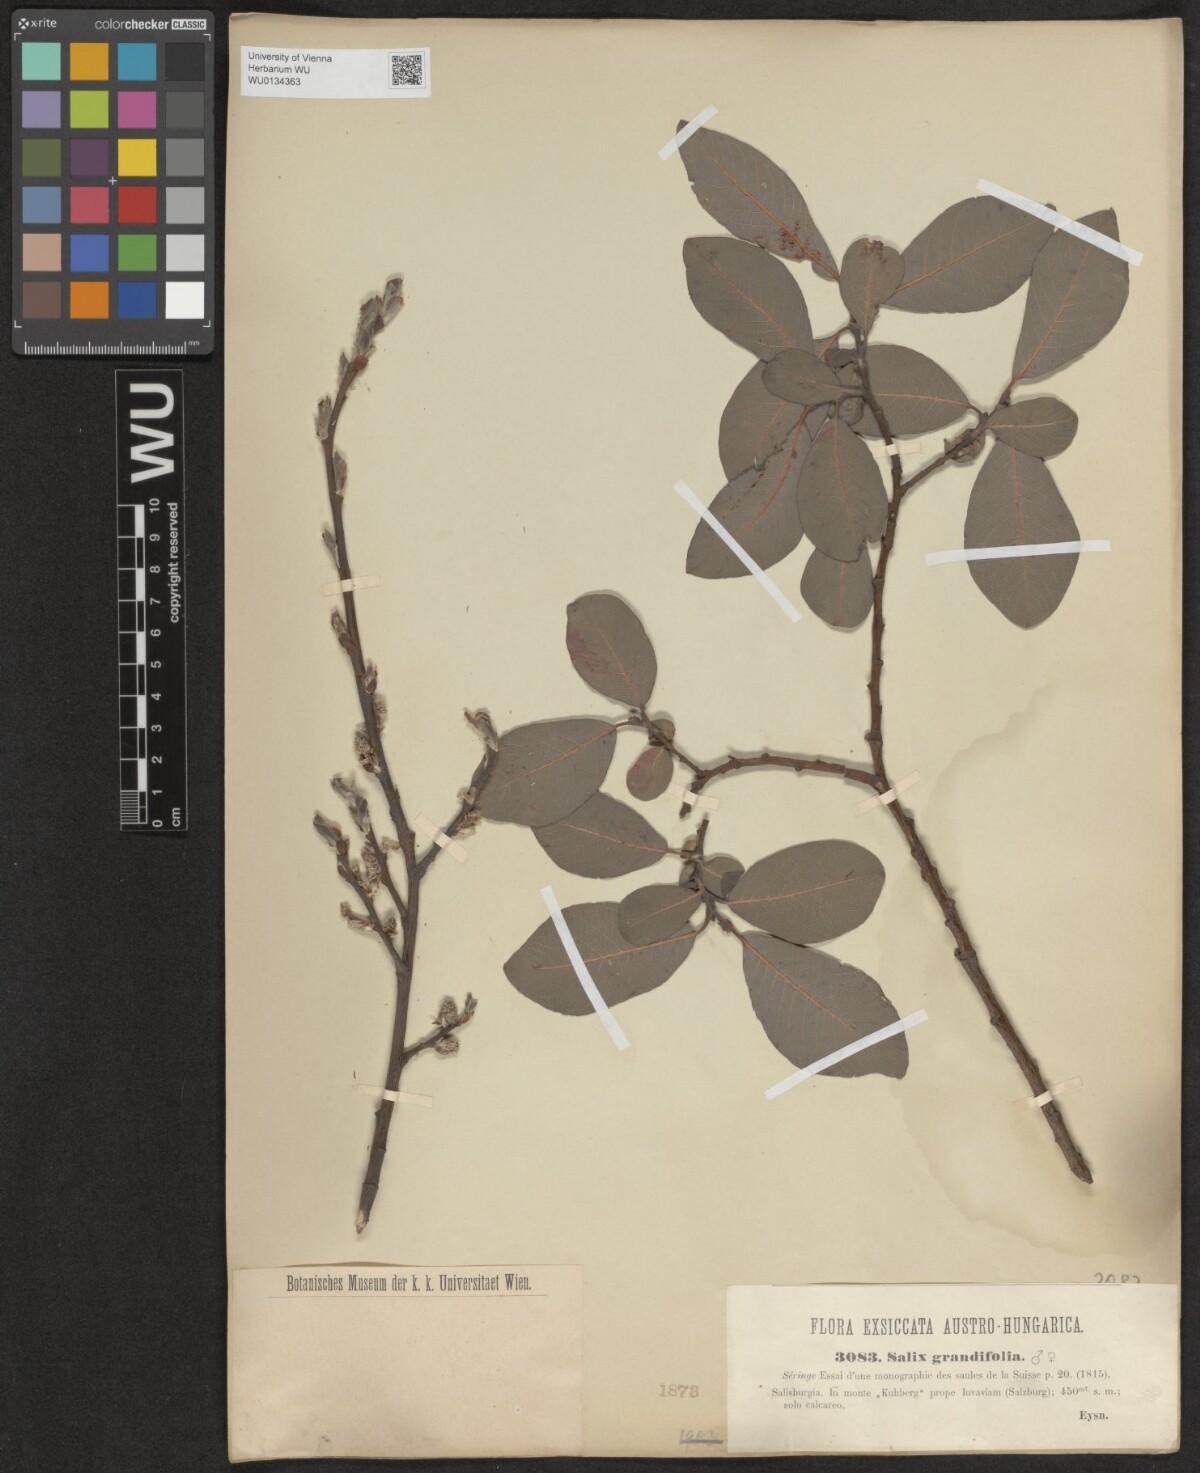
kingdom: Plantae
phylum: Tracheophyta
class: Magnoliopsida
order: Malpighiales
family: Salicaceae
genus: Salix
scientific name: Salix appendiculata
